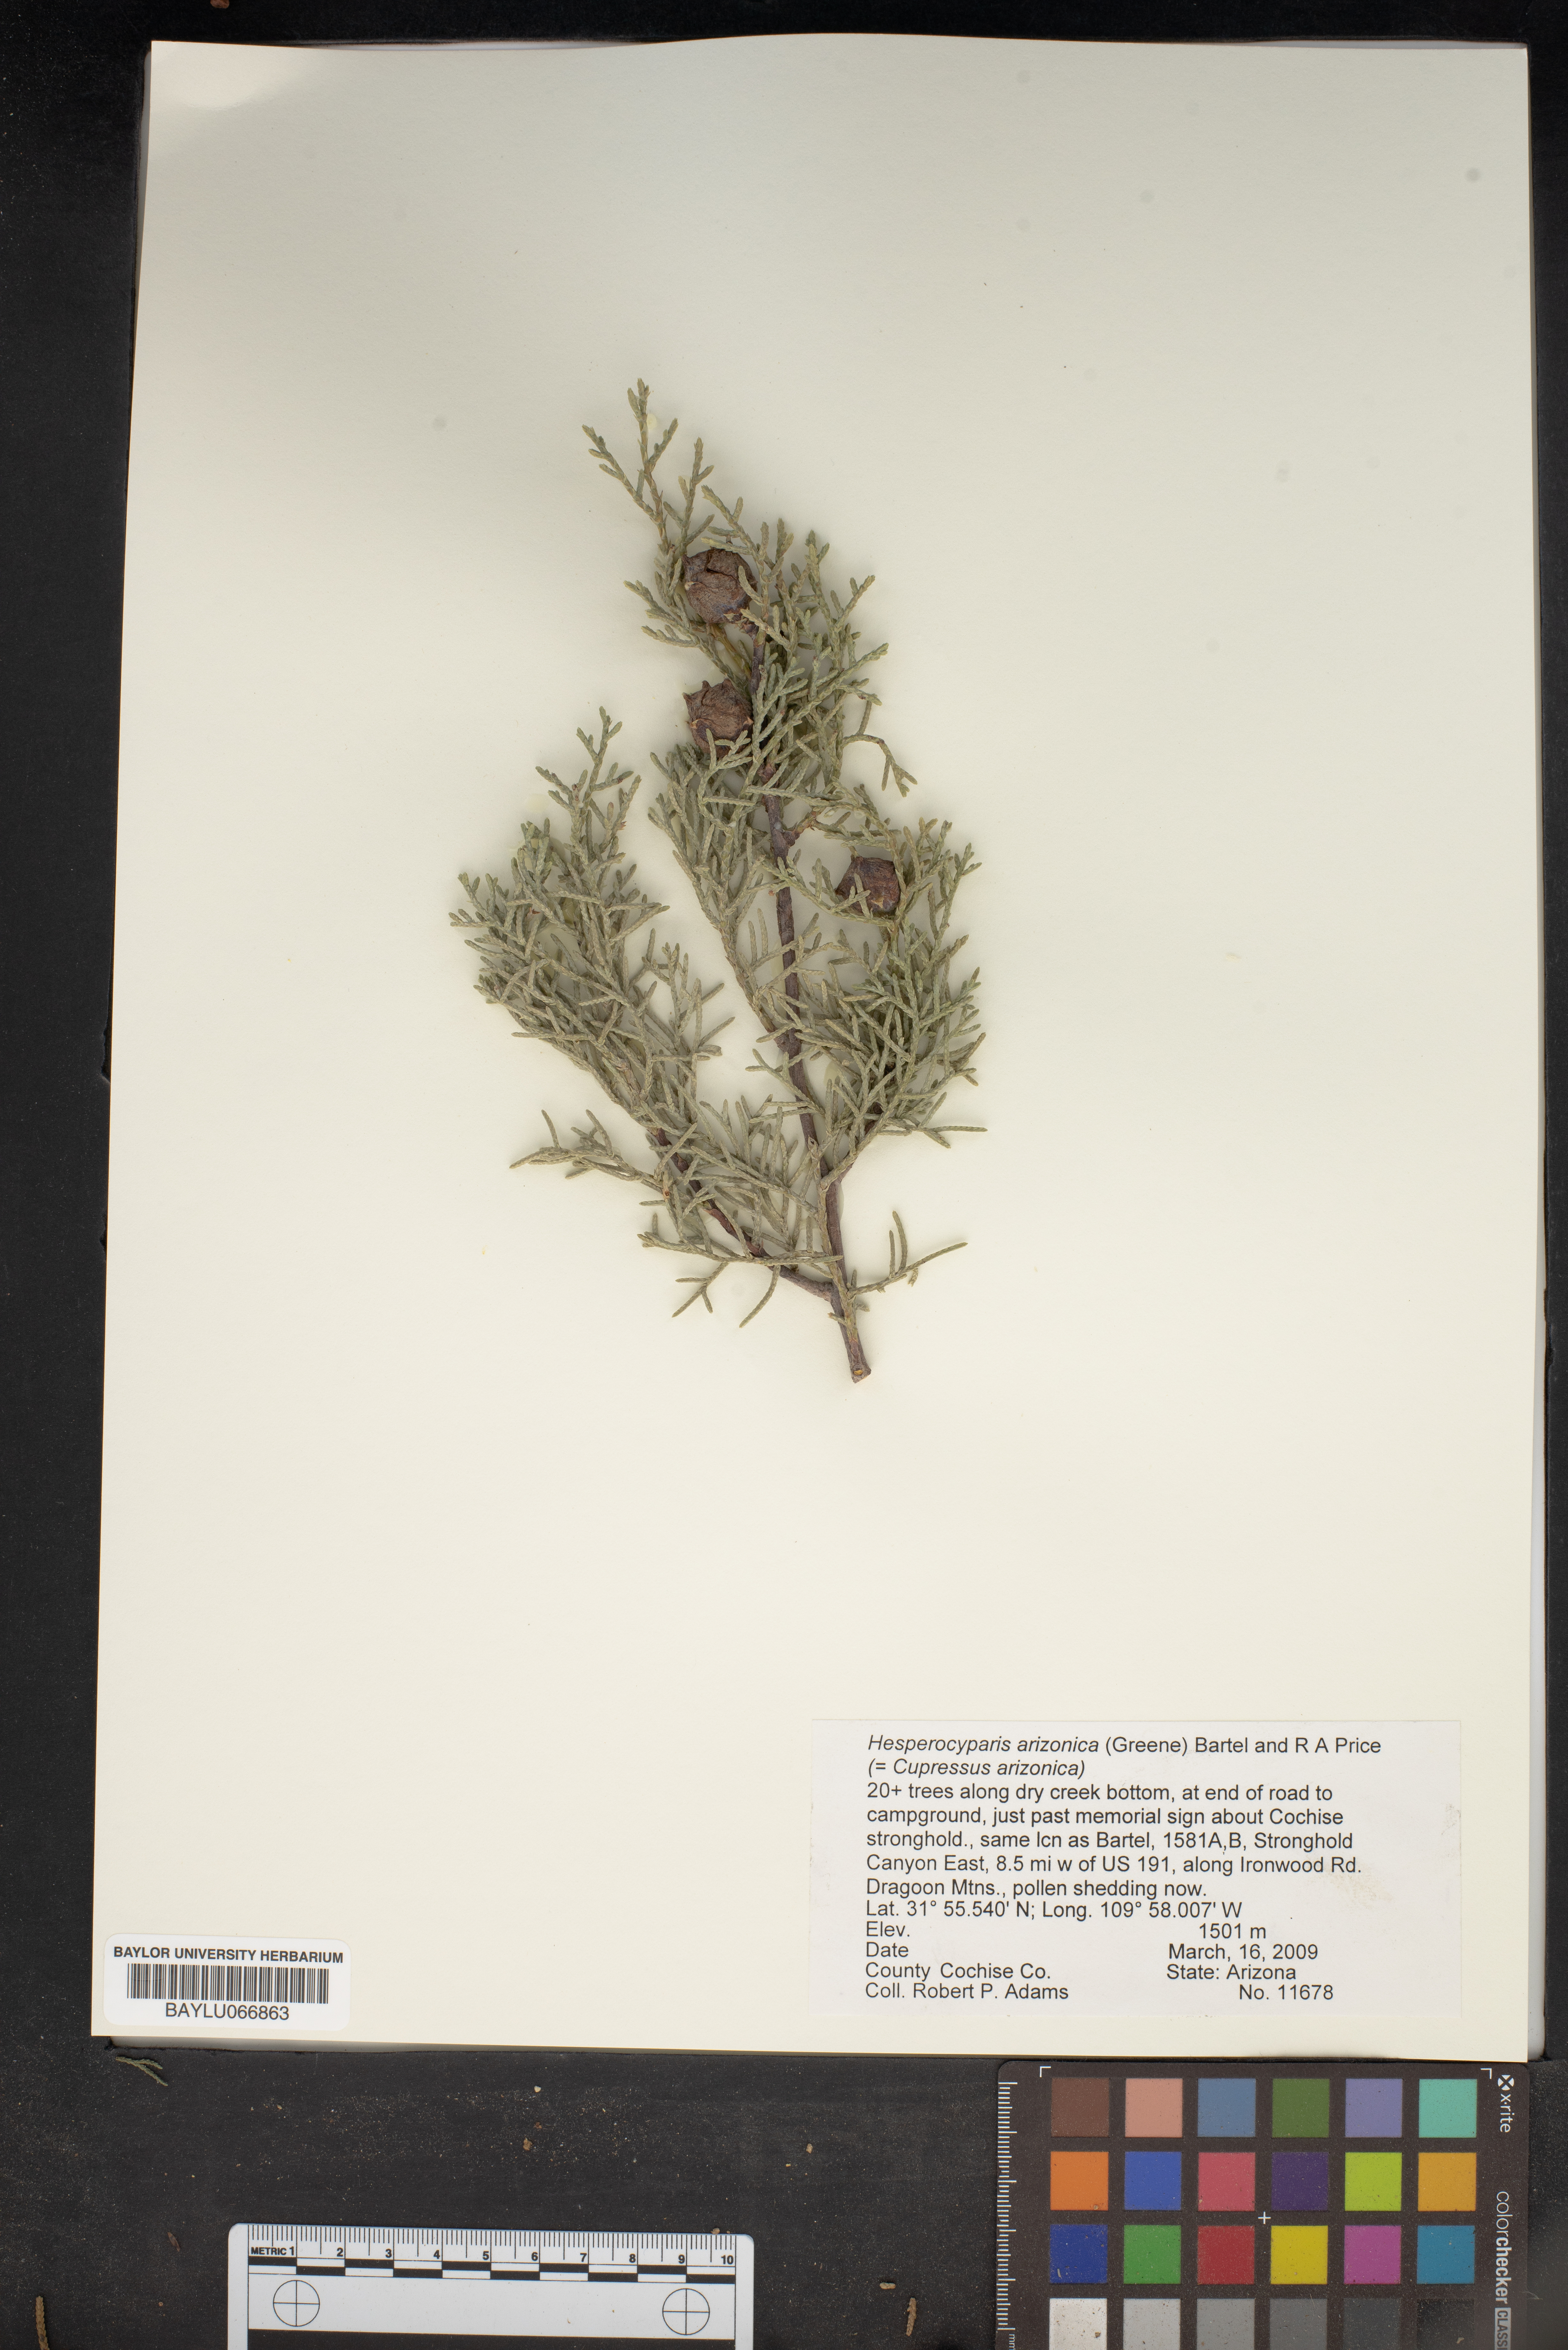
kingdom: Plantae
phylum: Tracheophyta
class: Pinopsida
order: Pinales
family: Cupressaceae
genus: Cupressus
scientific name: Cupressus arizonica
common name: Arizona cypress
